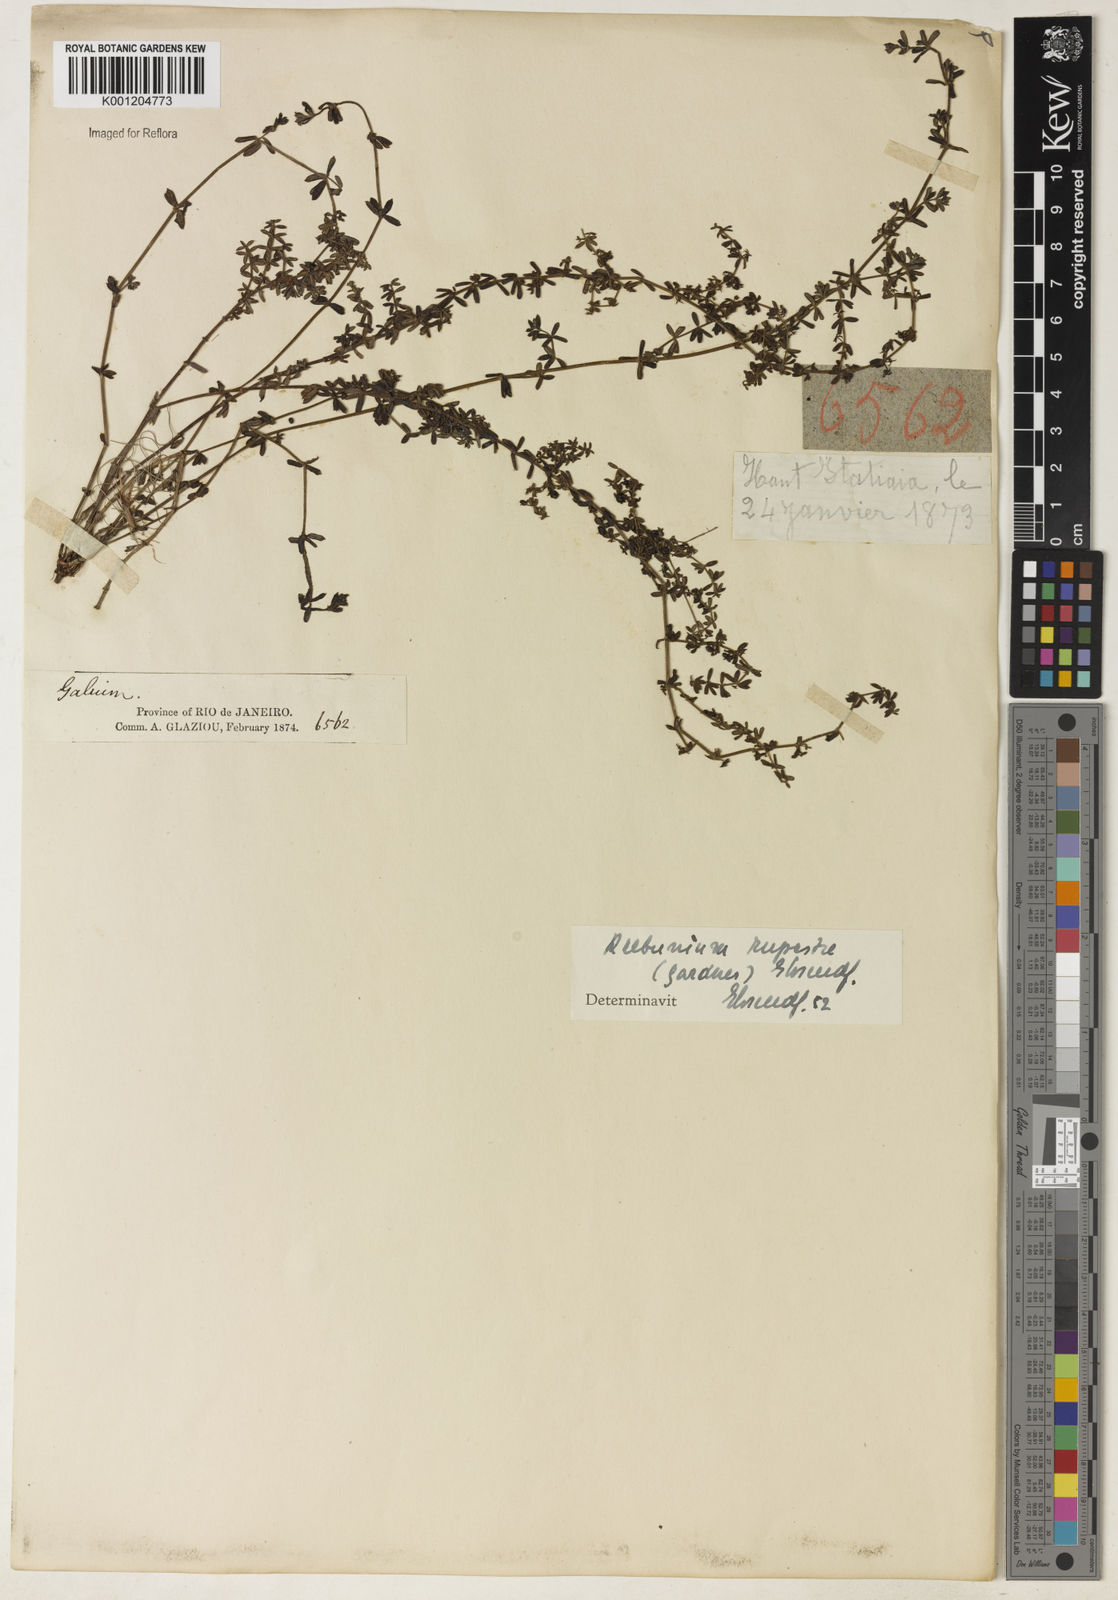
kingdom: Plantae
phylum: Tracheophyta
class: Magnoliopsida
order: Gentianales
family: Rubiaceae
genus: Galium
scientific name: Galium hypocarpium
